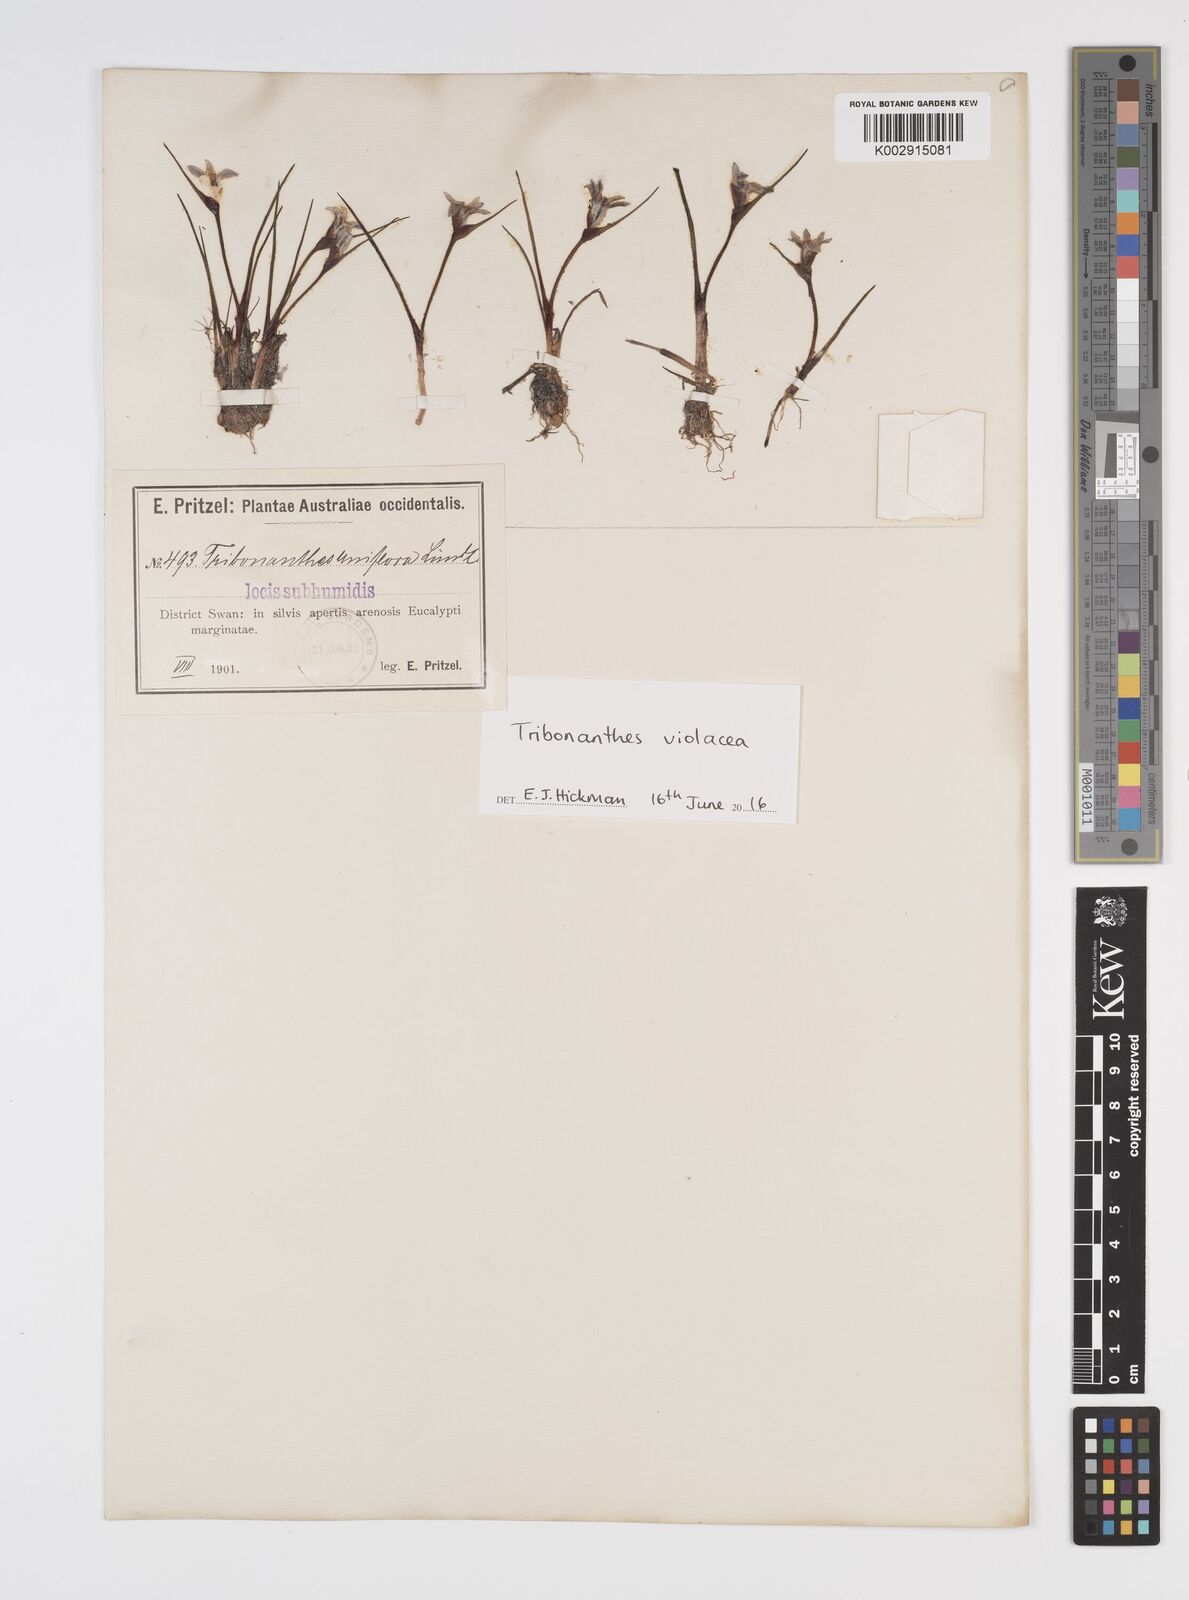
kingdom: Plantae
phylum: Tracheophyta
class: Liliopsida
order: Commelinales
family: Haemodoraceae
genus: Tribonanthes
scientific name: Tribonanthes uniflora
